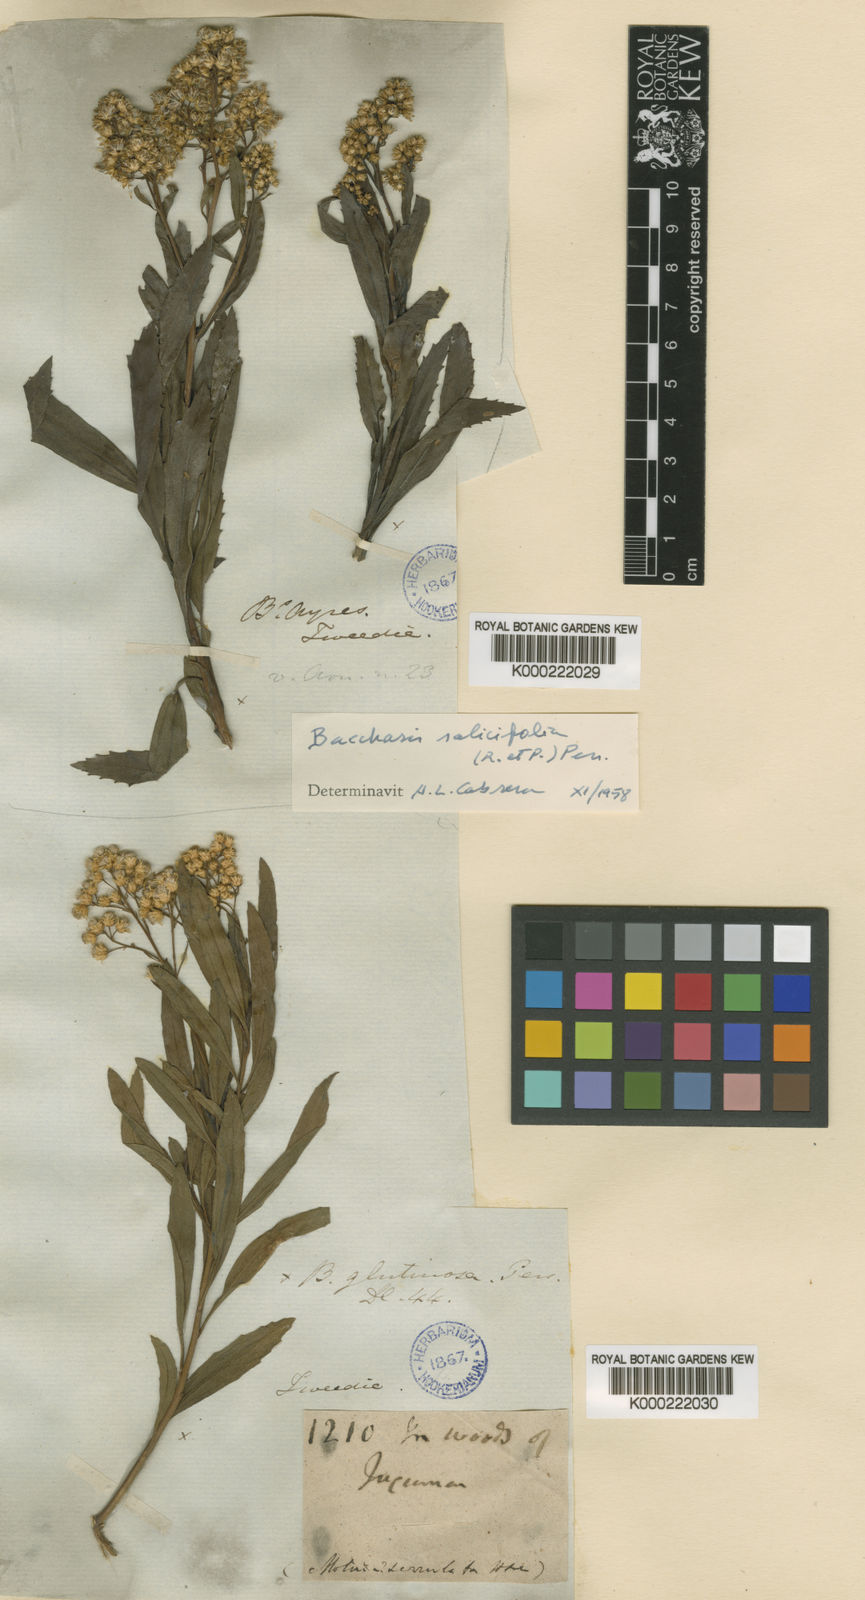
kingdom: Plantae
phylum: Tracheophyta
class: Magnoliopsida
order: Asterales
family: Asteraceae
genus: Baccharis
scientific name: Baccharis glutinosa
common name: Saltmarsh baccharis
